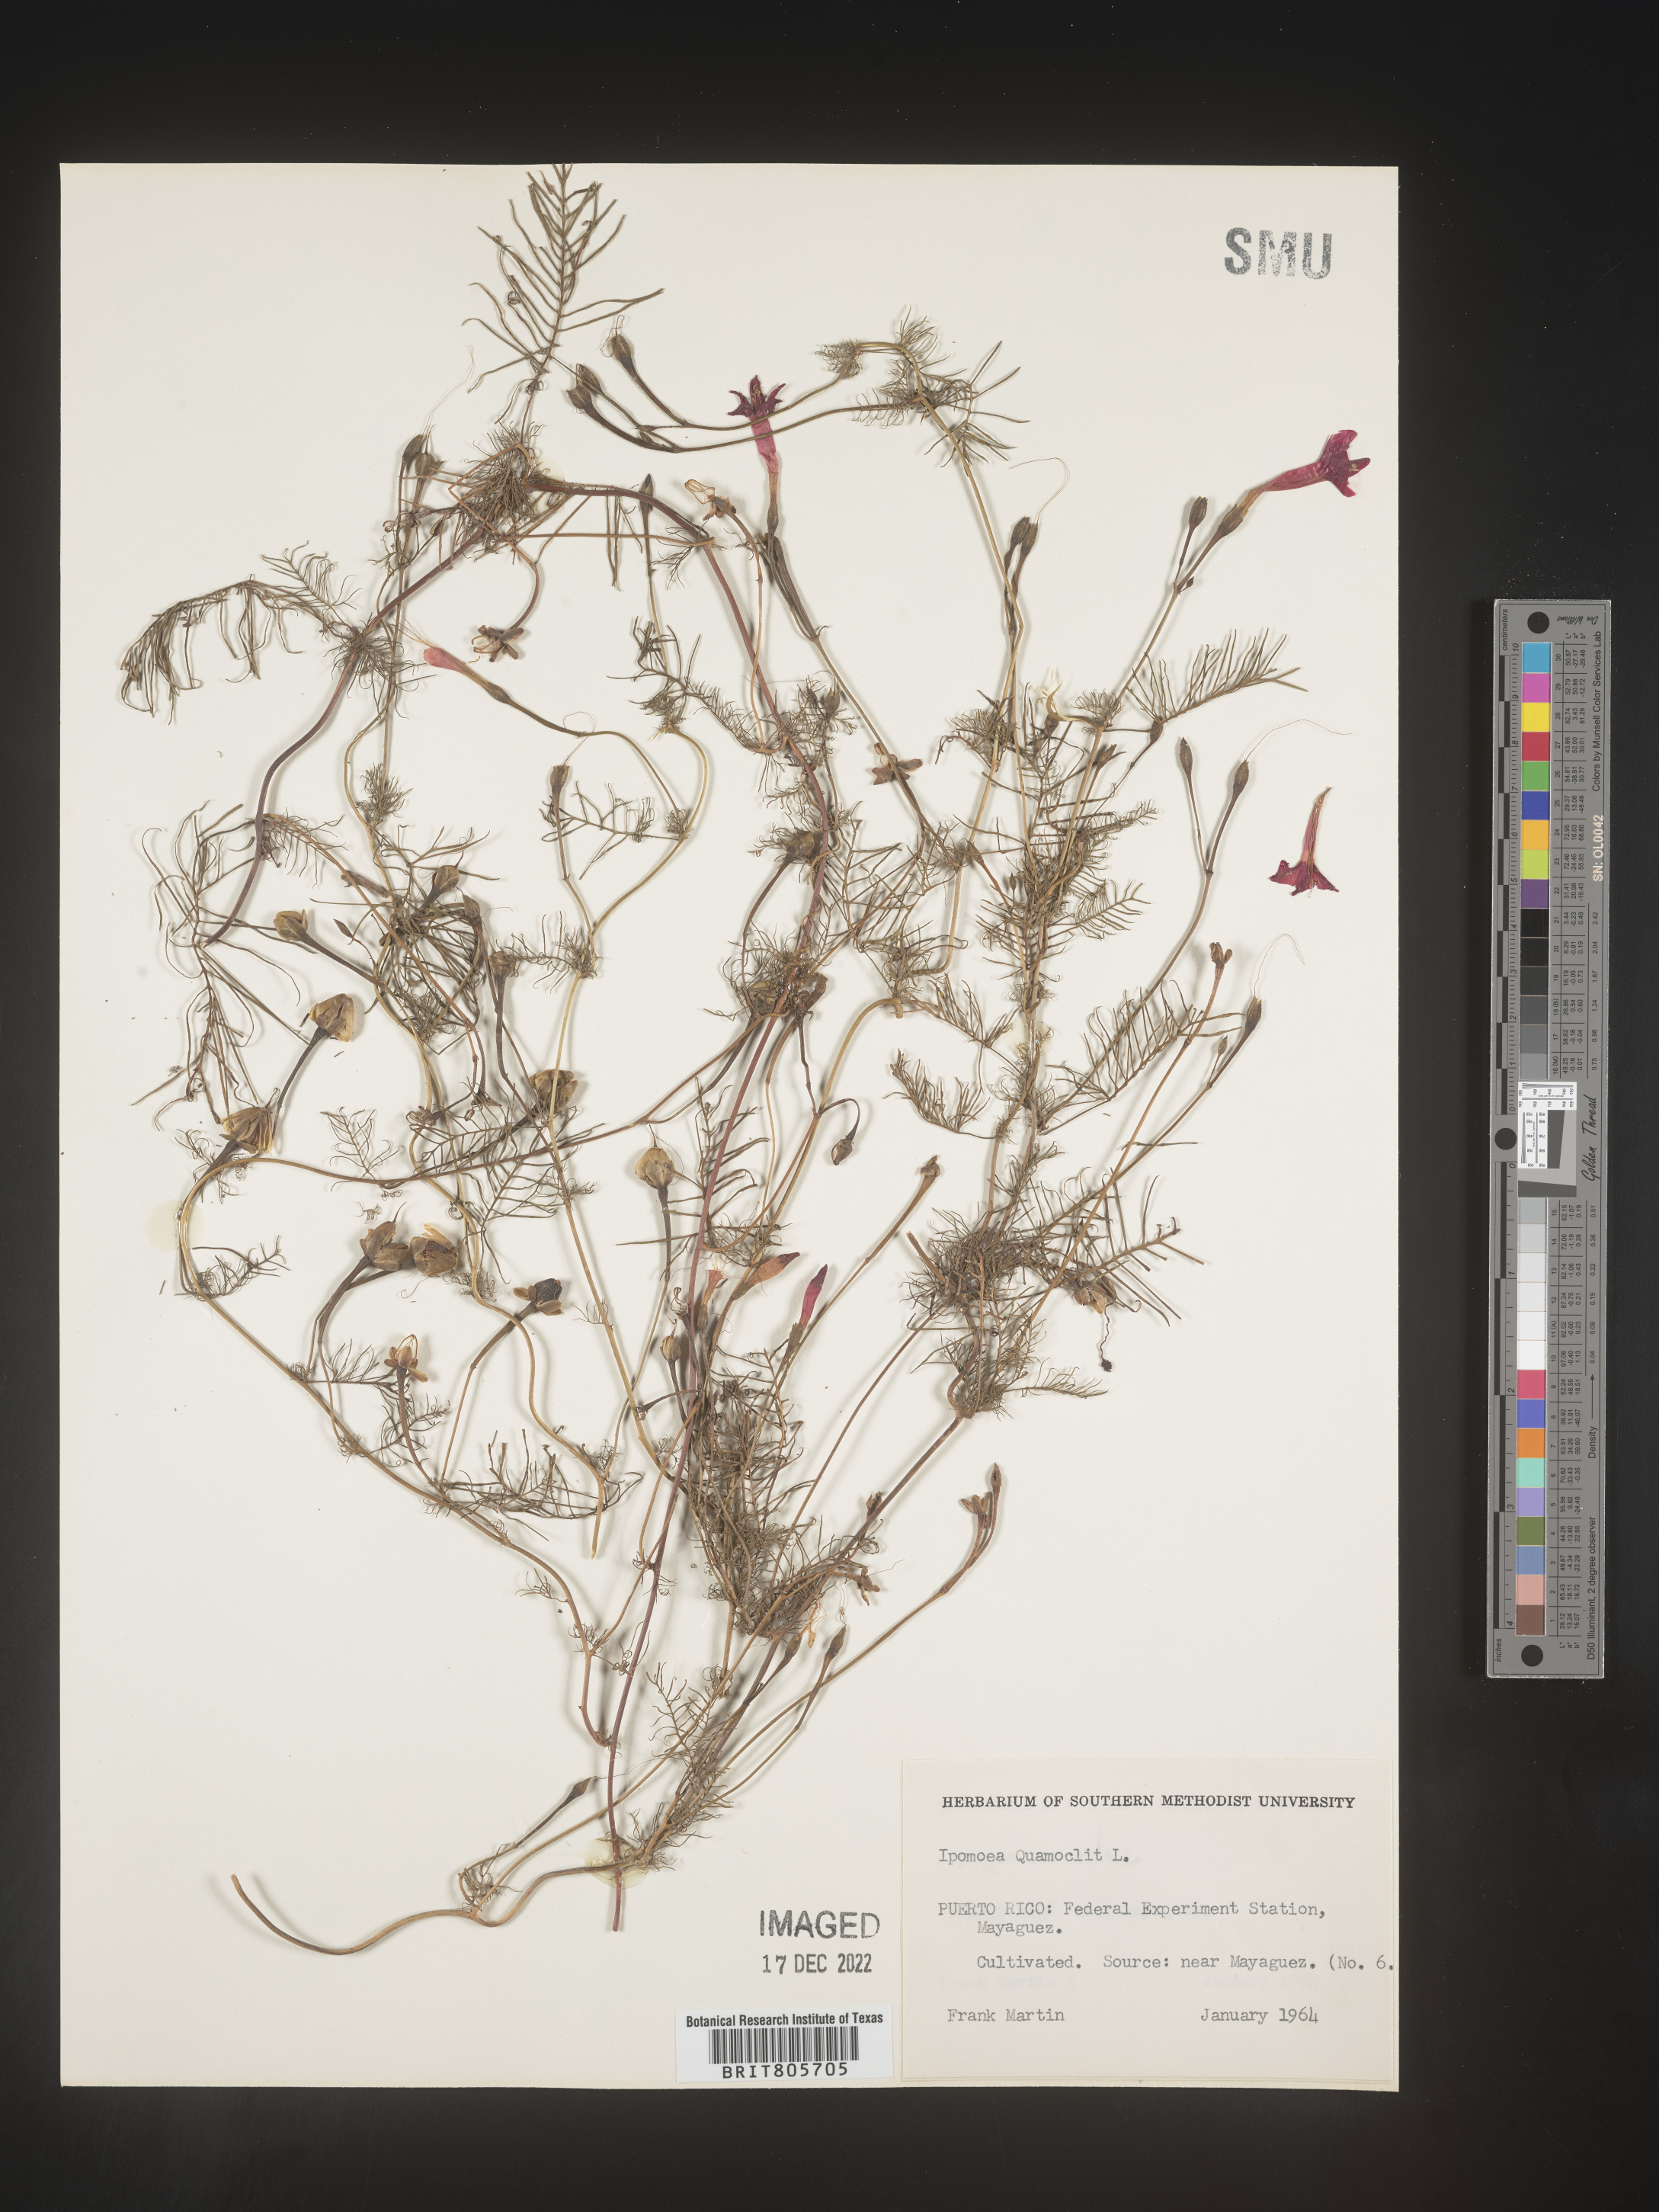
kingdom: Plantae
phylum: Tracheophyta
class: Magnoliopsida
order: Solanales
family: Convolvulaceae
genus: Ipomoea
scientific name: Ipomoea quamoclit
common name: Cypress vine
